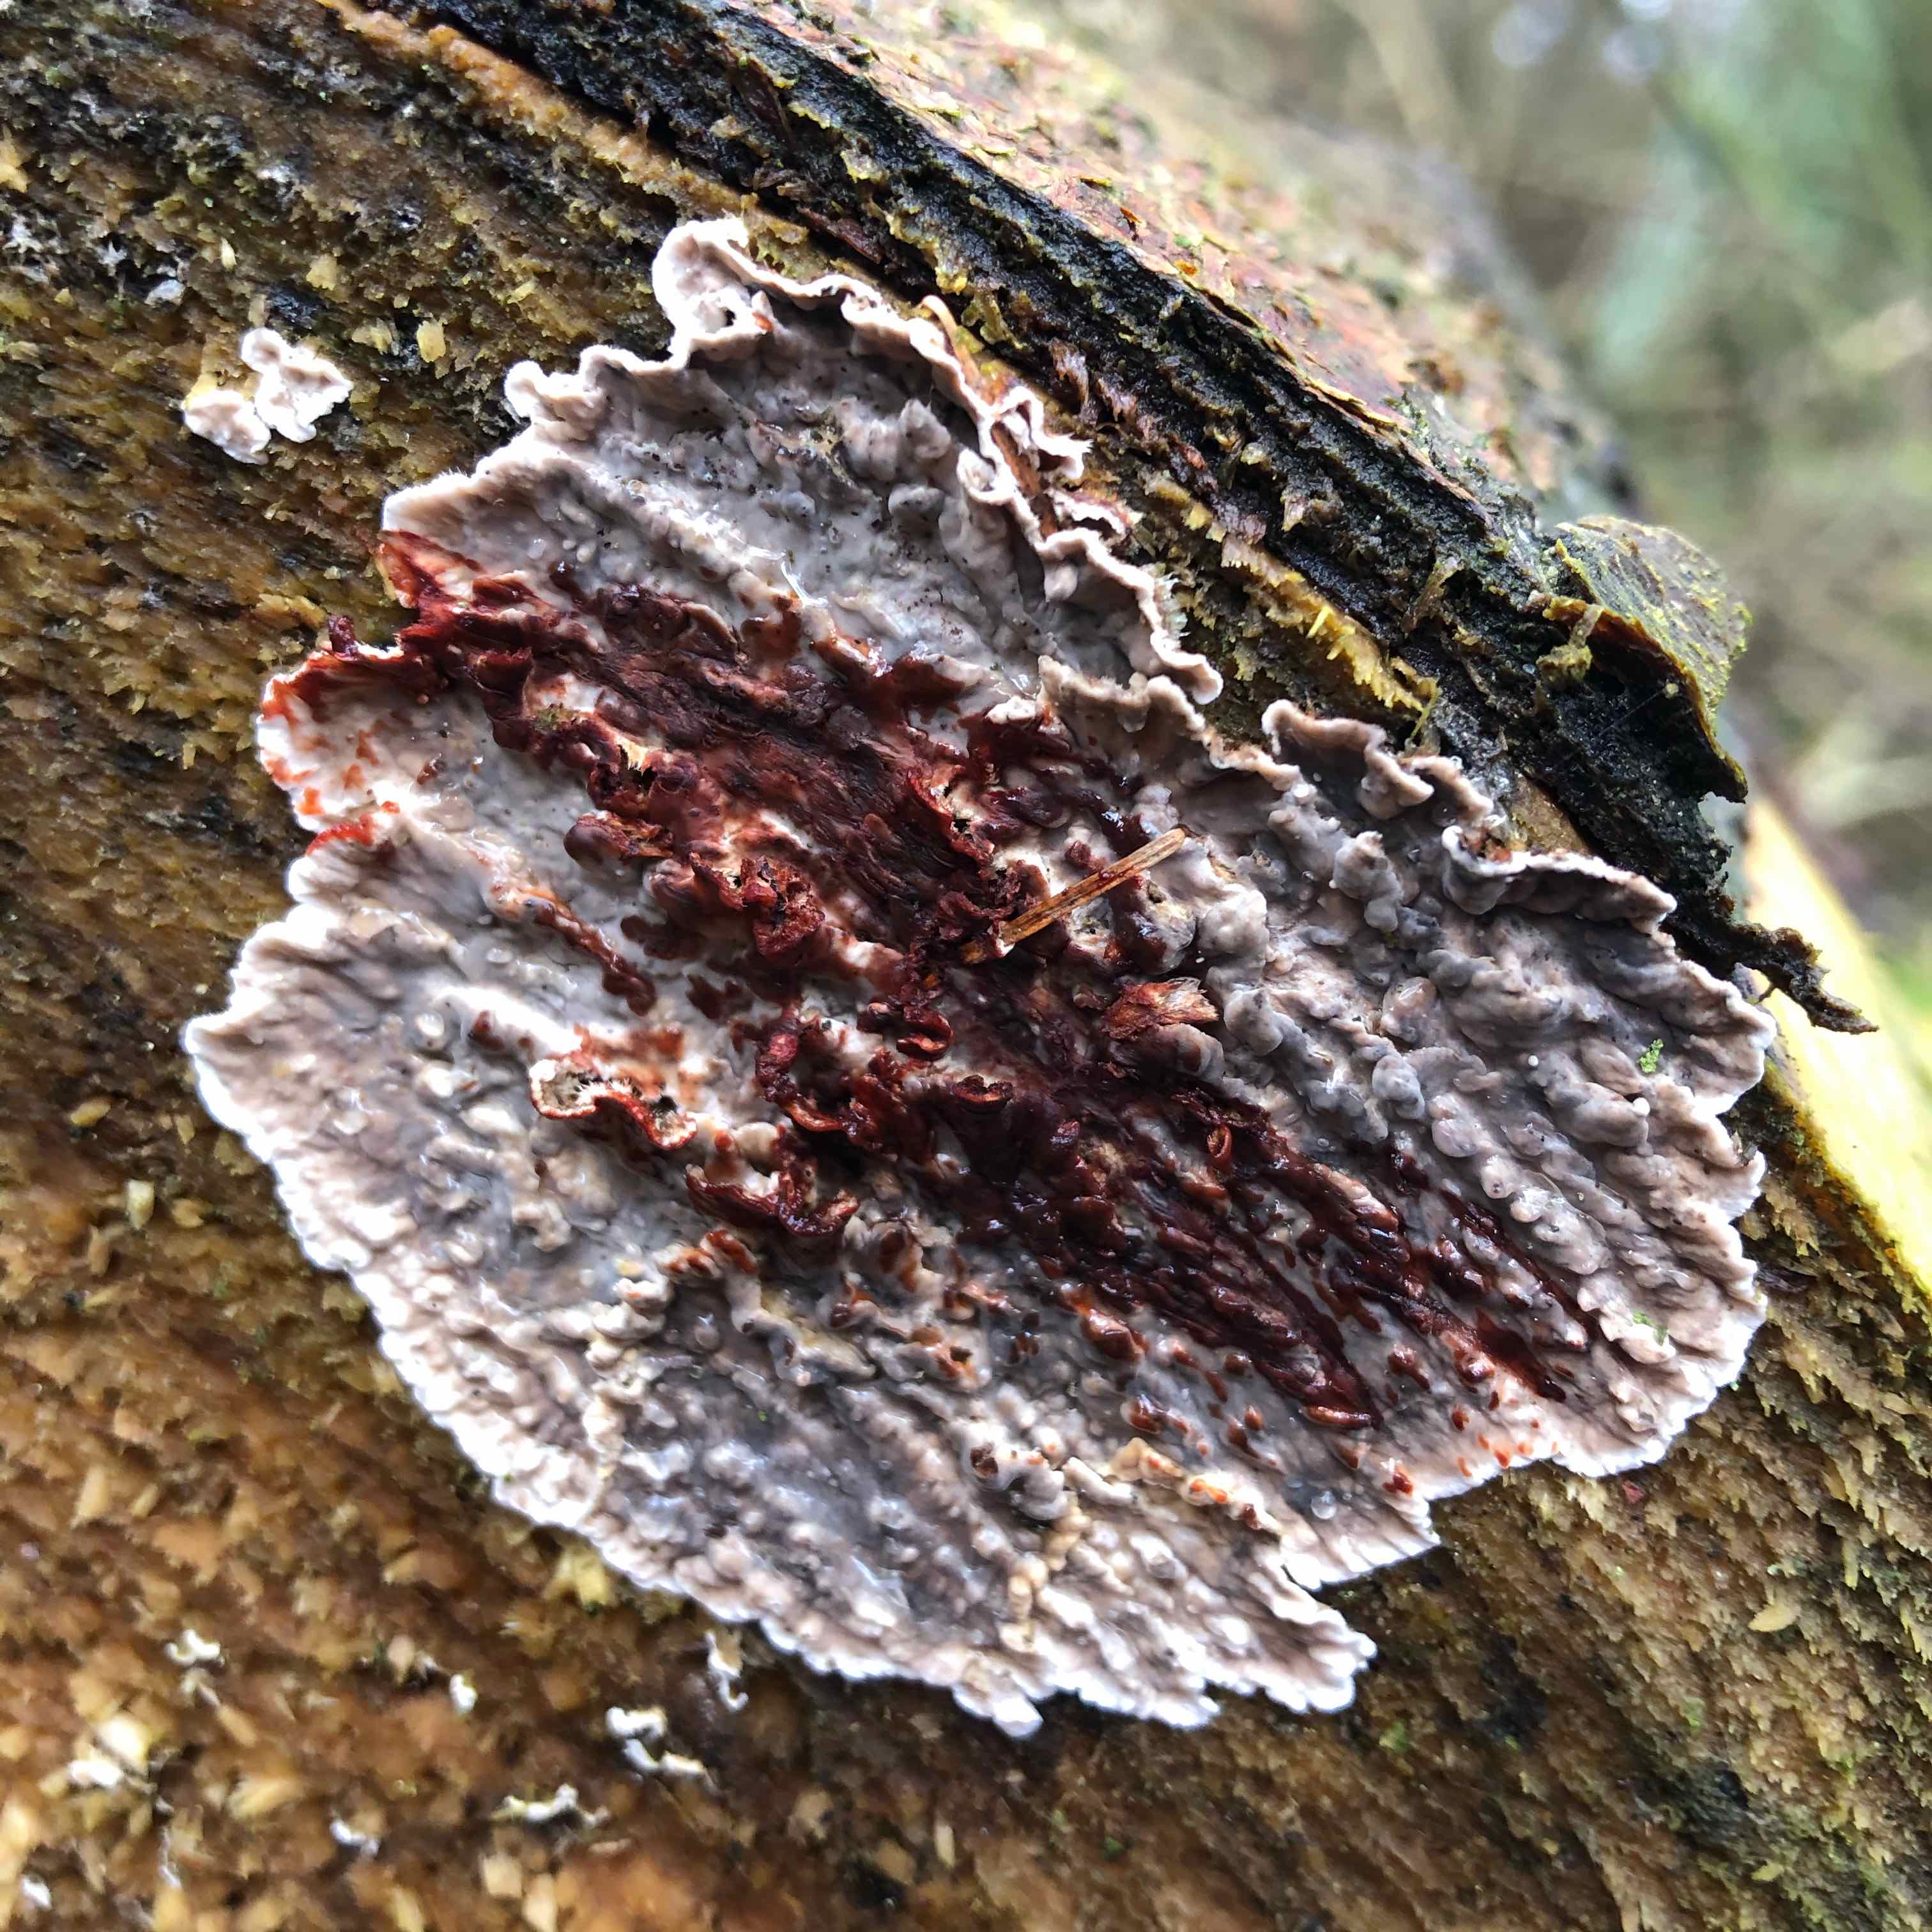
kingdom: Fungi
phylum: Basidiomycota
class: Agaricomycetes
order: Russulales
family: Stereaceae
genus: Stereum
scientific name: Stereum sanguinolentum
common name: blødende lædersvamp
